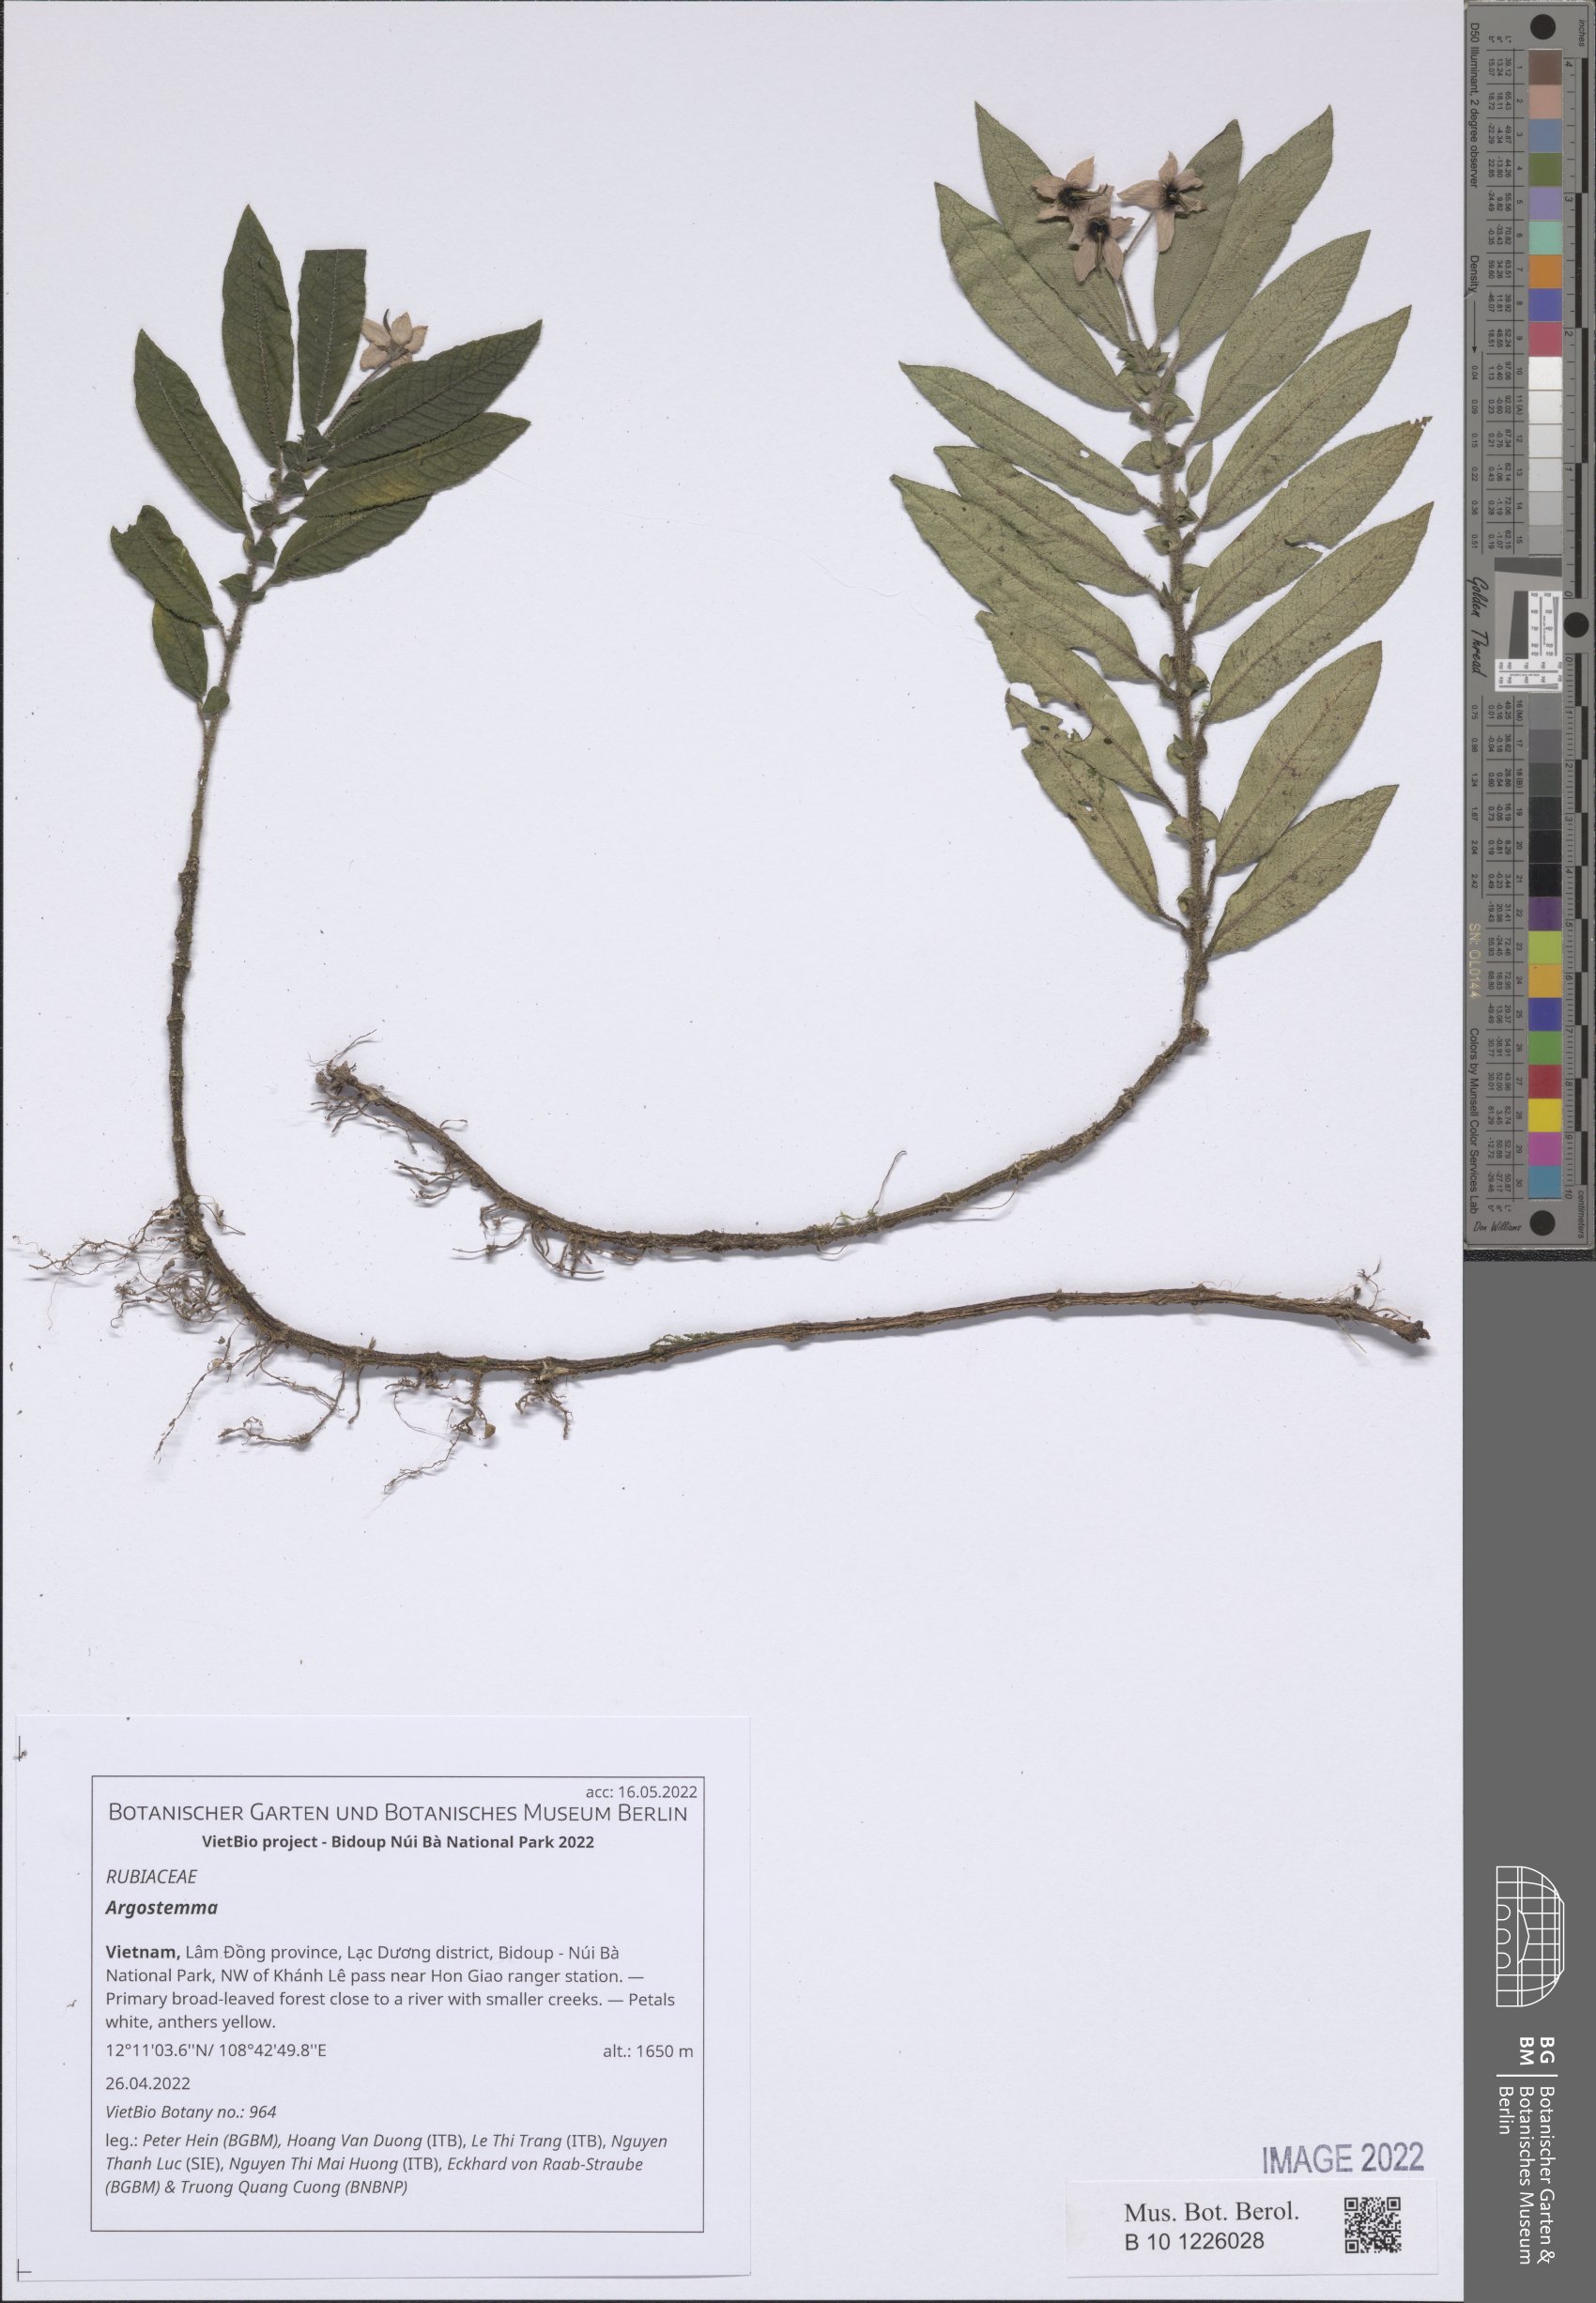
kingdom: Plantae
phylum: Tracheophyta
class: Magnoliopsida
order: Gentianales
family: Rubiaceae
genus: Argostemma
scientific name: Argostemma
